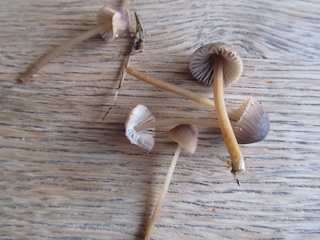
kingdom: Fungi
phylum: Basidiomycota
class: Agaricomycetes
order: Agaricales
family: Mycenaceae
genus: Mycena
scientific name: Mycena olivaceomarginata
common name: brunægget huesvamp
